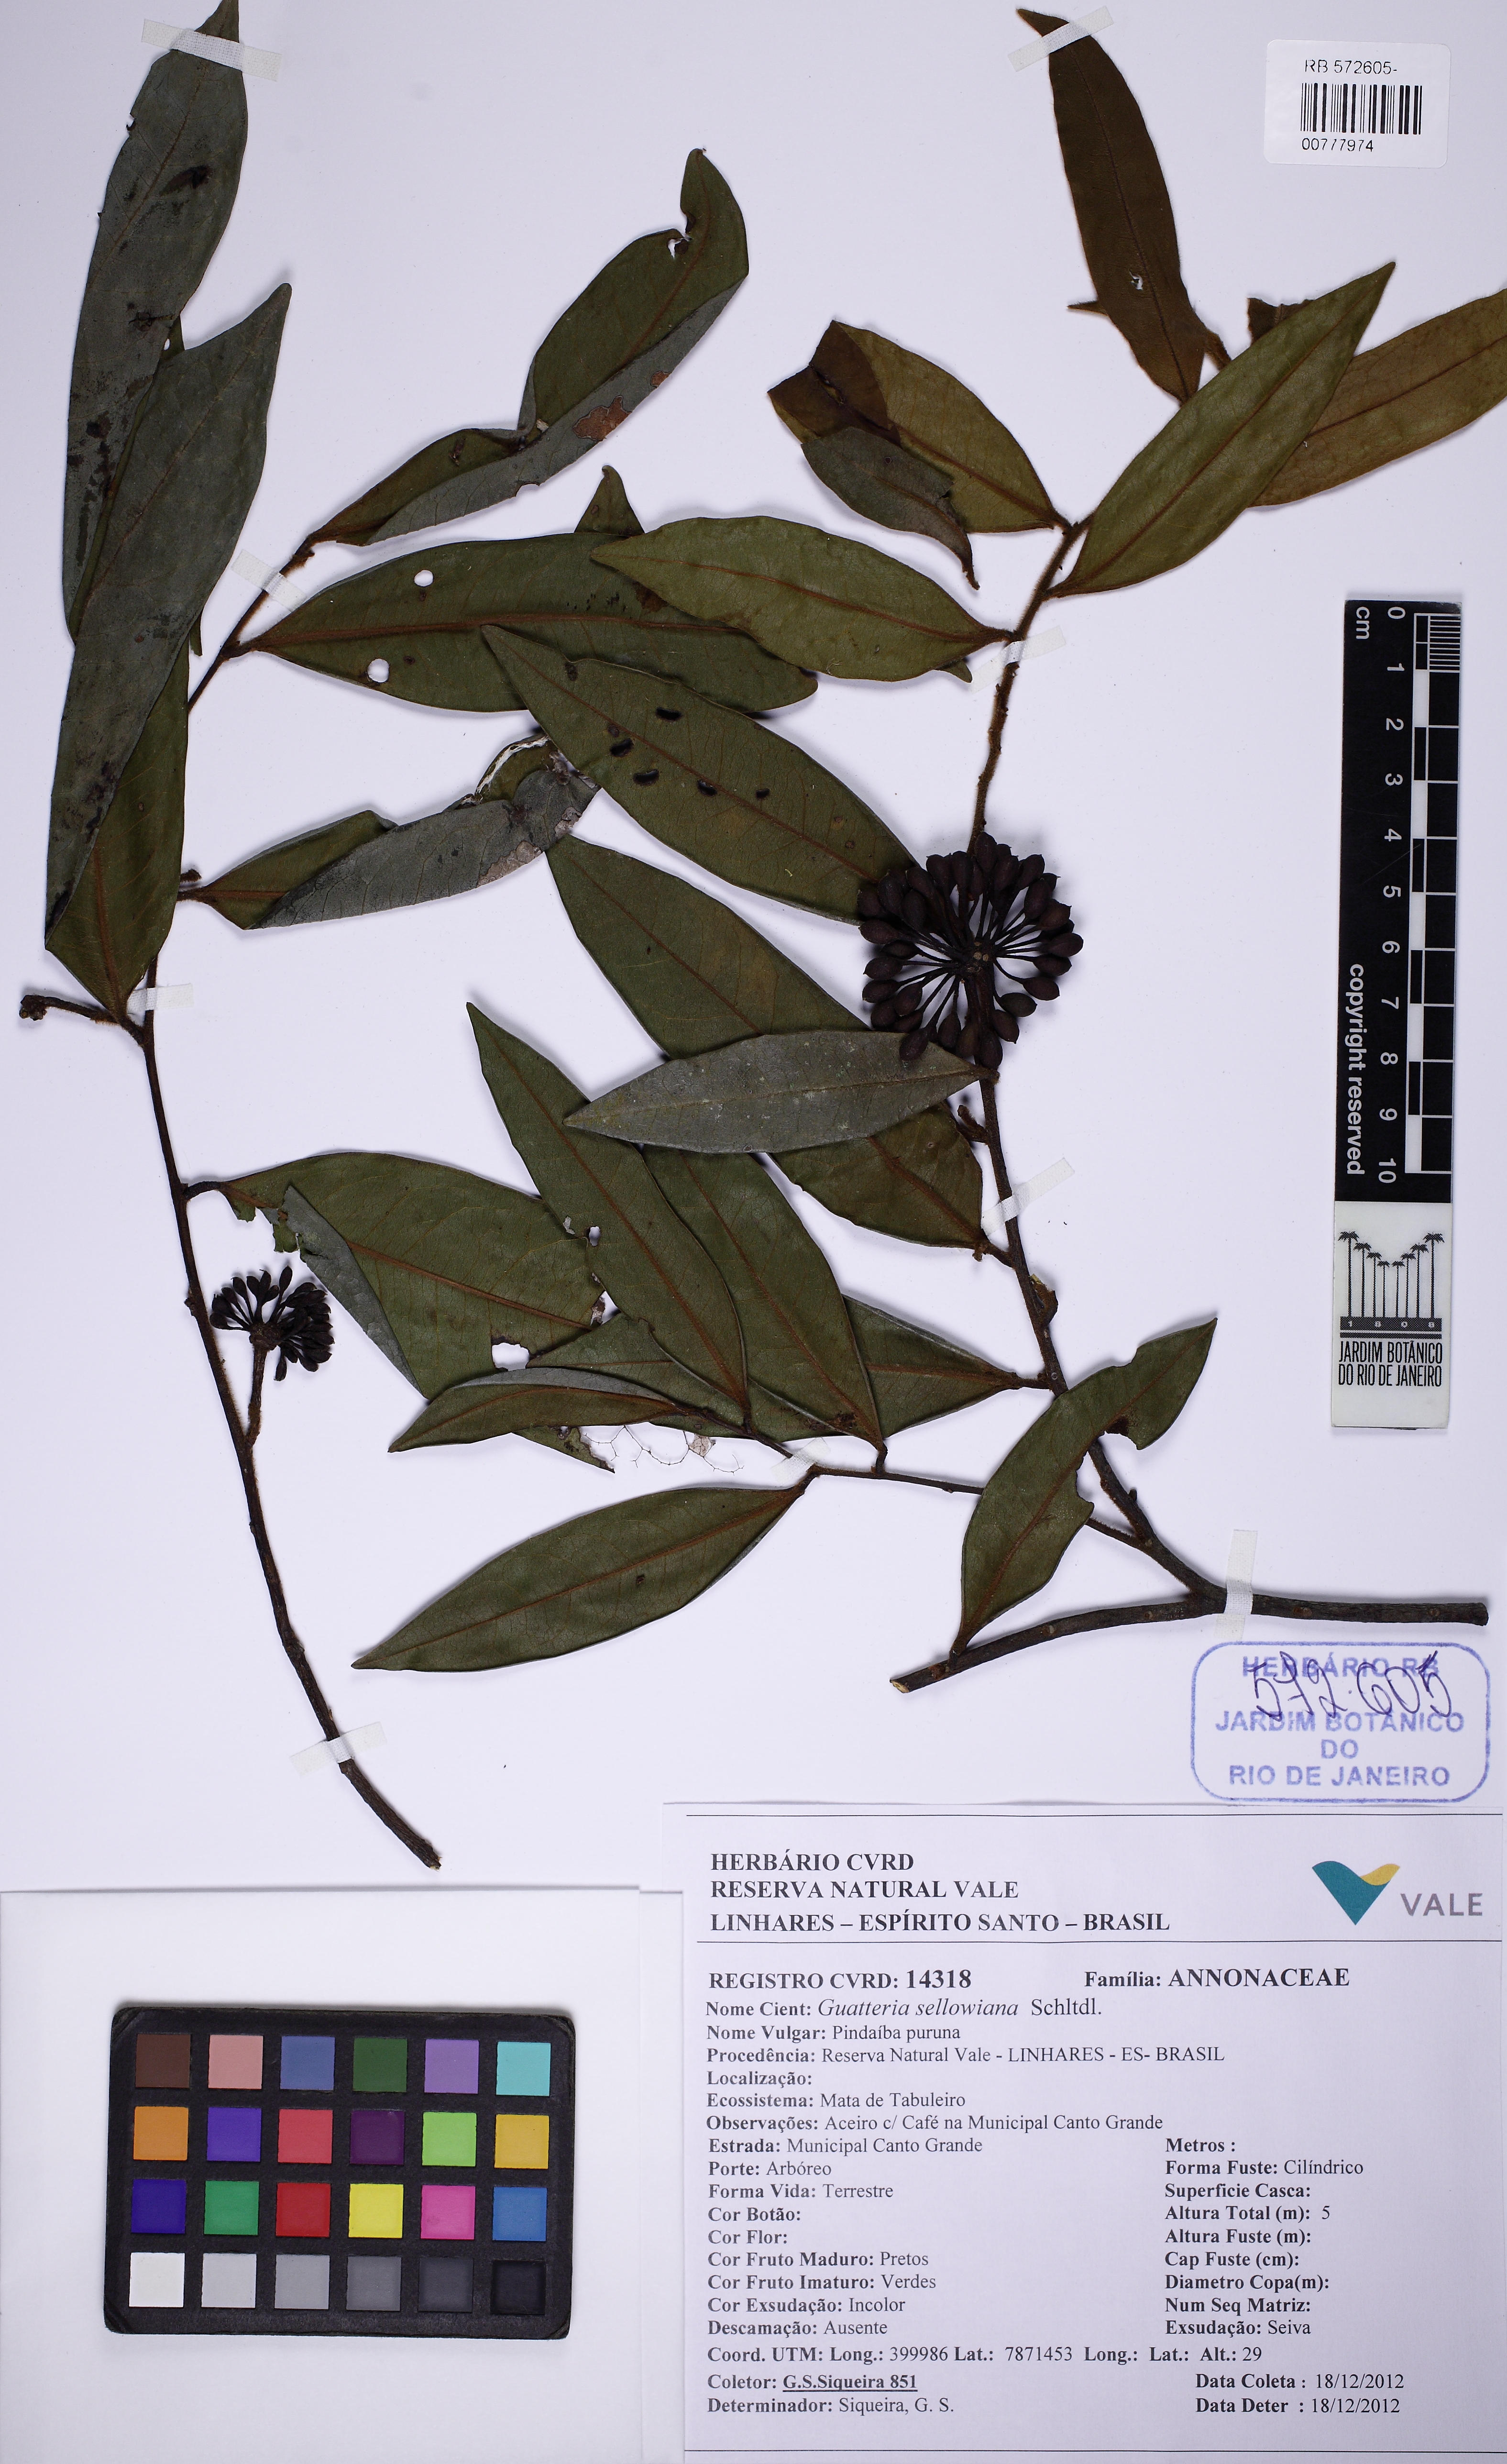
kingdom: Plantae
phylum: Tracheophyta
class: Magnoliopsida
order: Magnoliales
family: Annonaceae
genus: Guatteria
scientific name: Guatteria sellowiana
